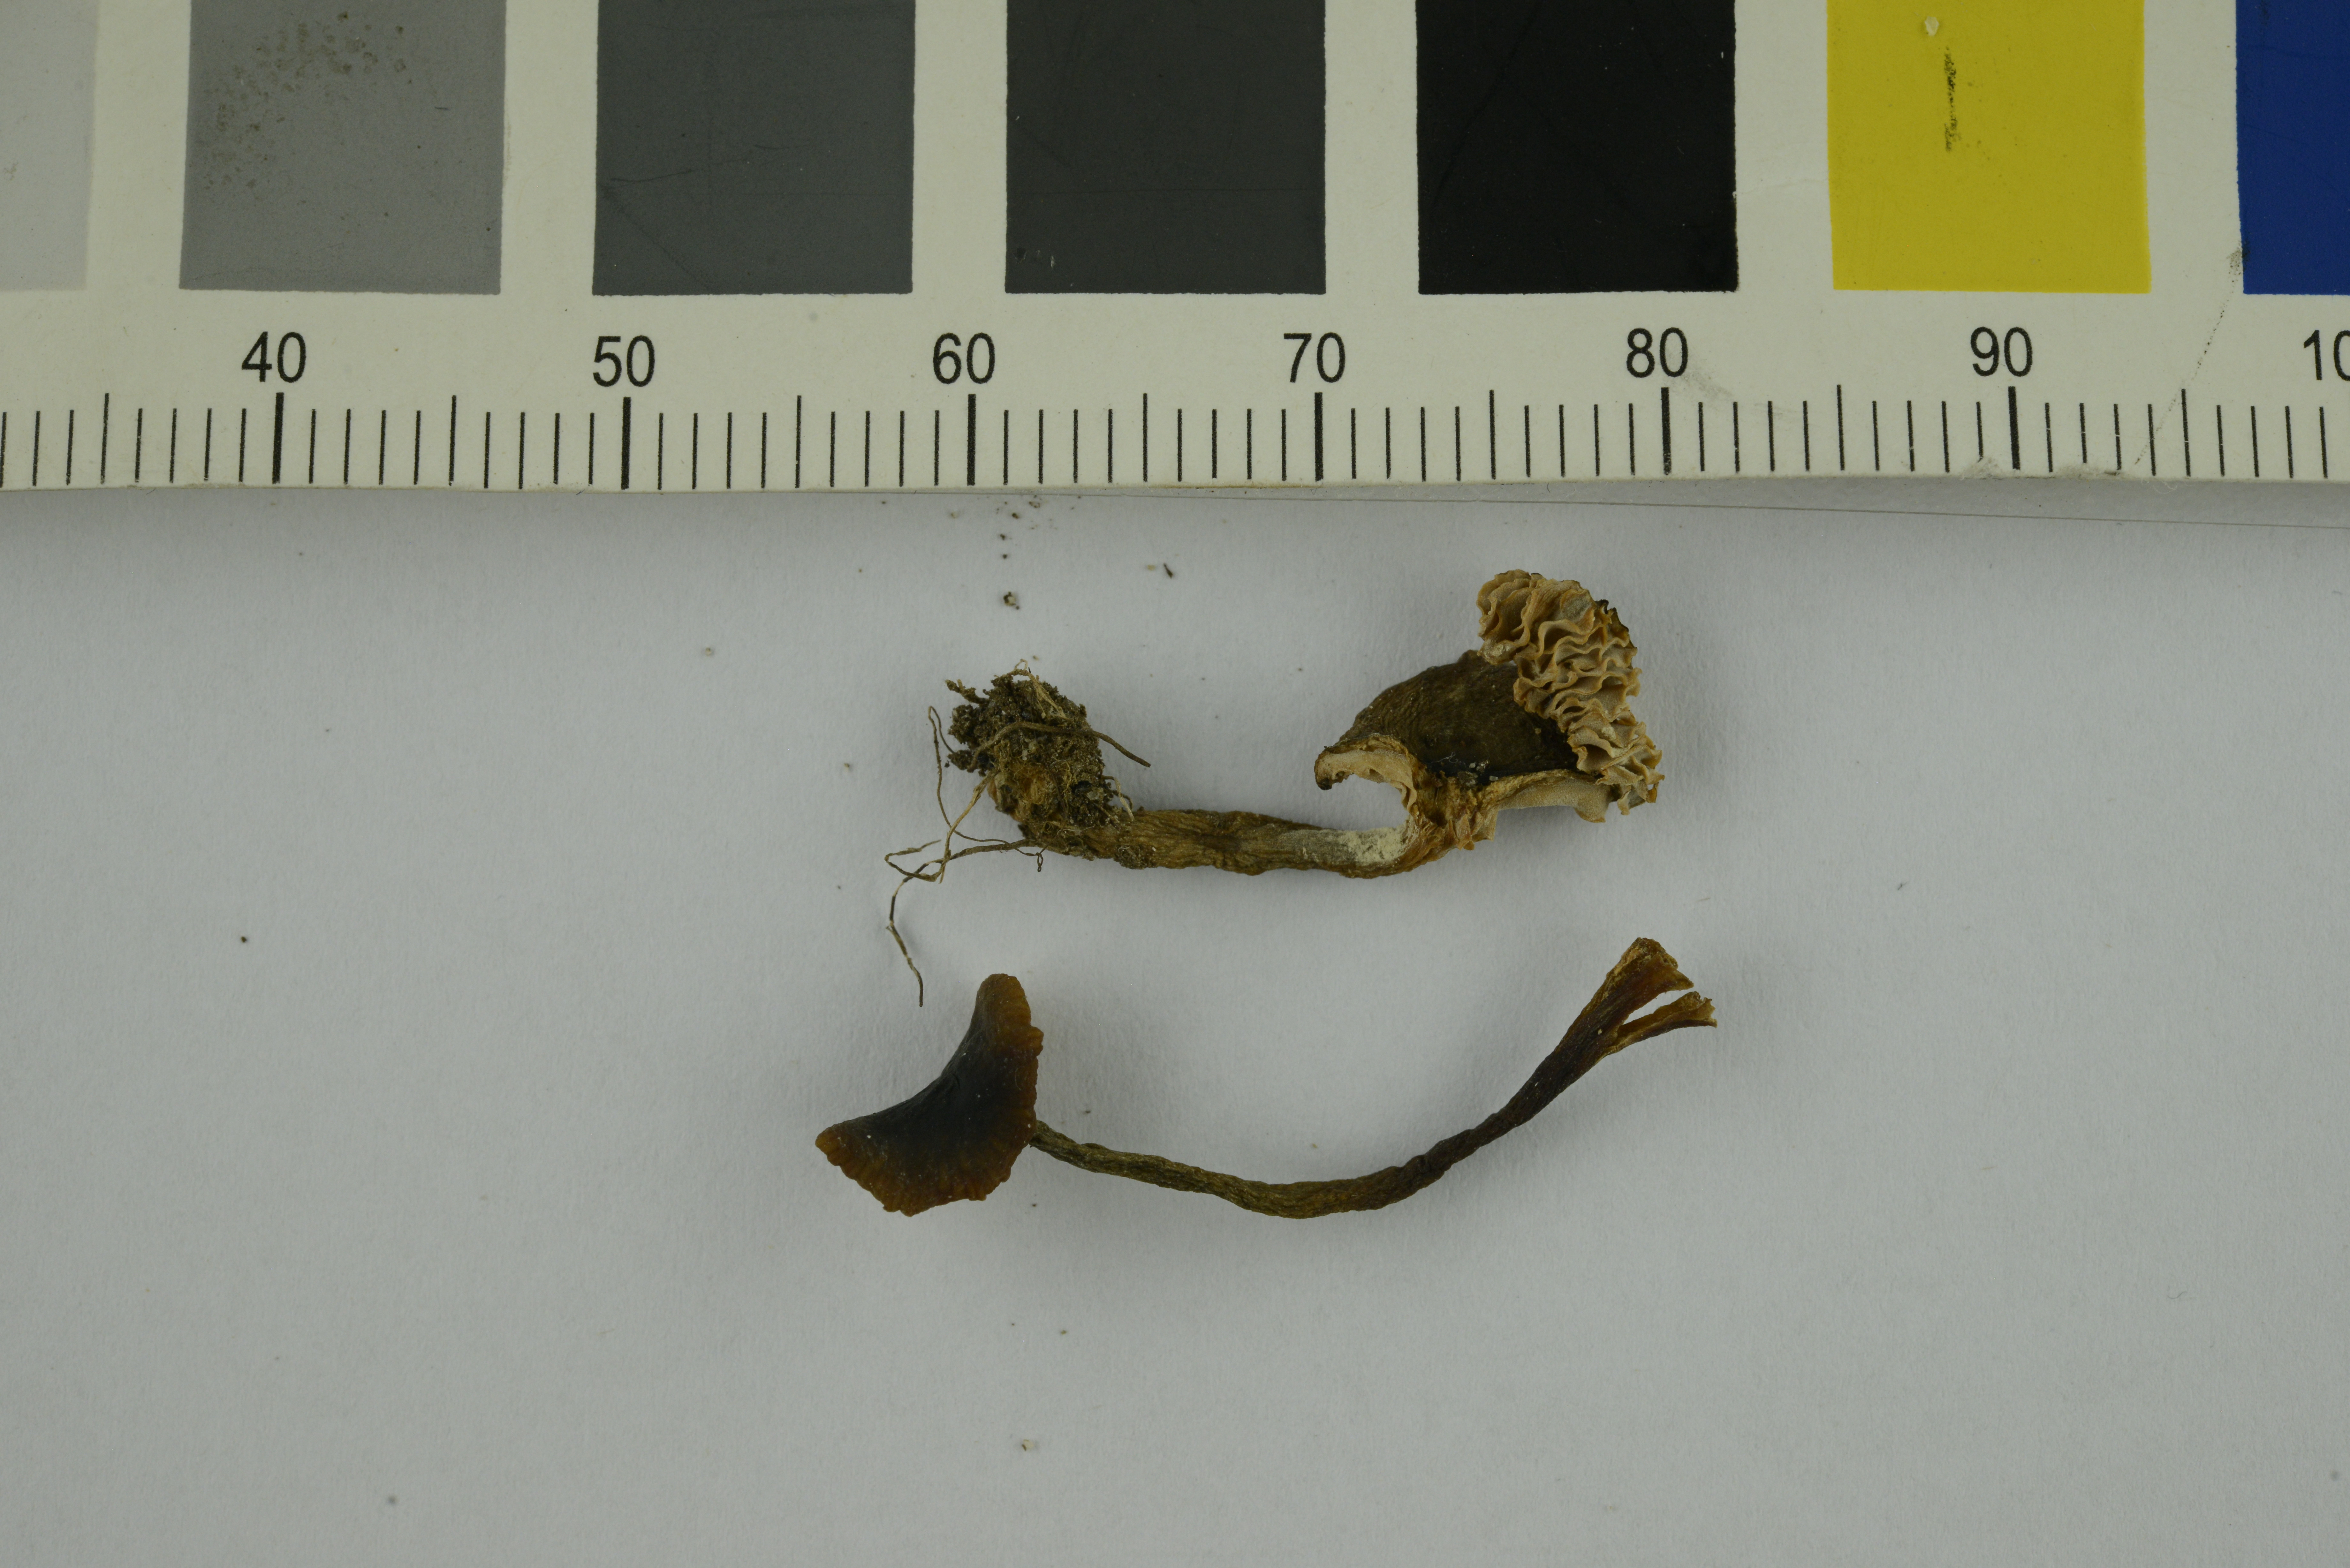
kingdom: Fungi
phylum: Basidiomycota
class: Agaricomycetes
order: Russulales
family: Russulaceae
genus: Lactarius
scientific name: Lactarius cyathuliformis
